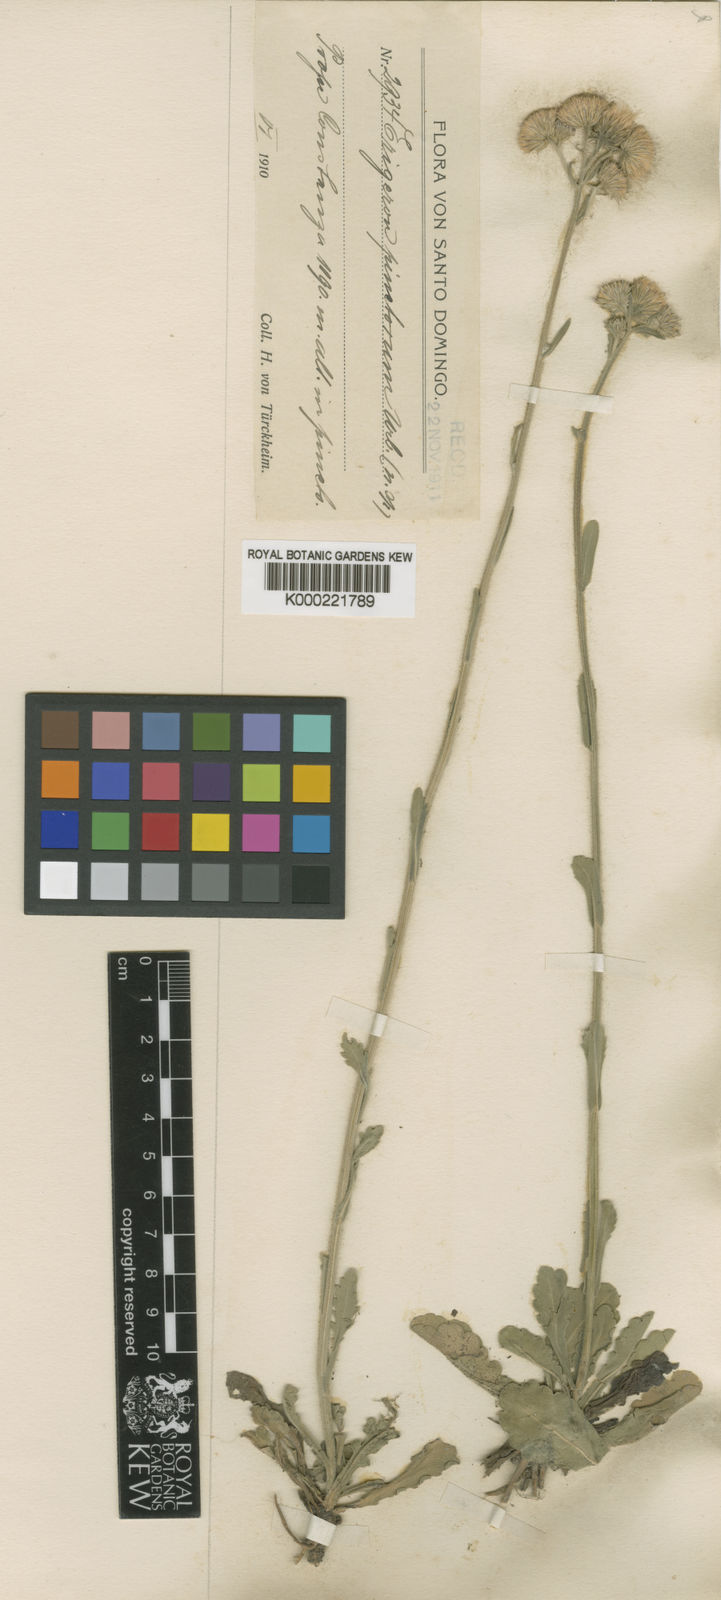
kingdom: Plantae
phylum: Tracheophyta
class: Magnoliopsida
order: Asterales
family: Asteraceae
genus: Erigeron
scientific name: Erigeron primulifolius
